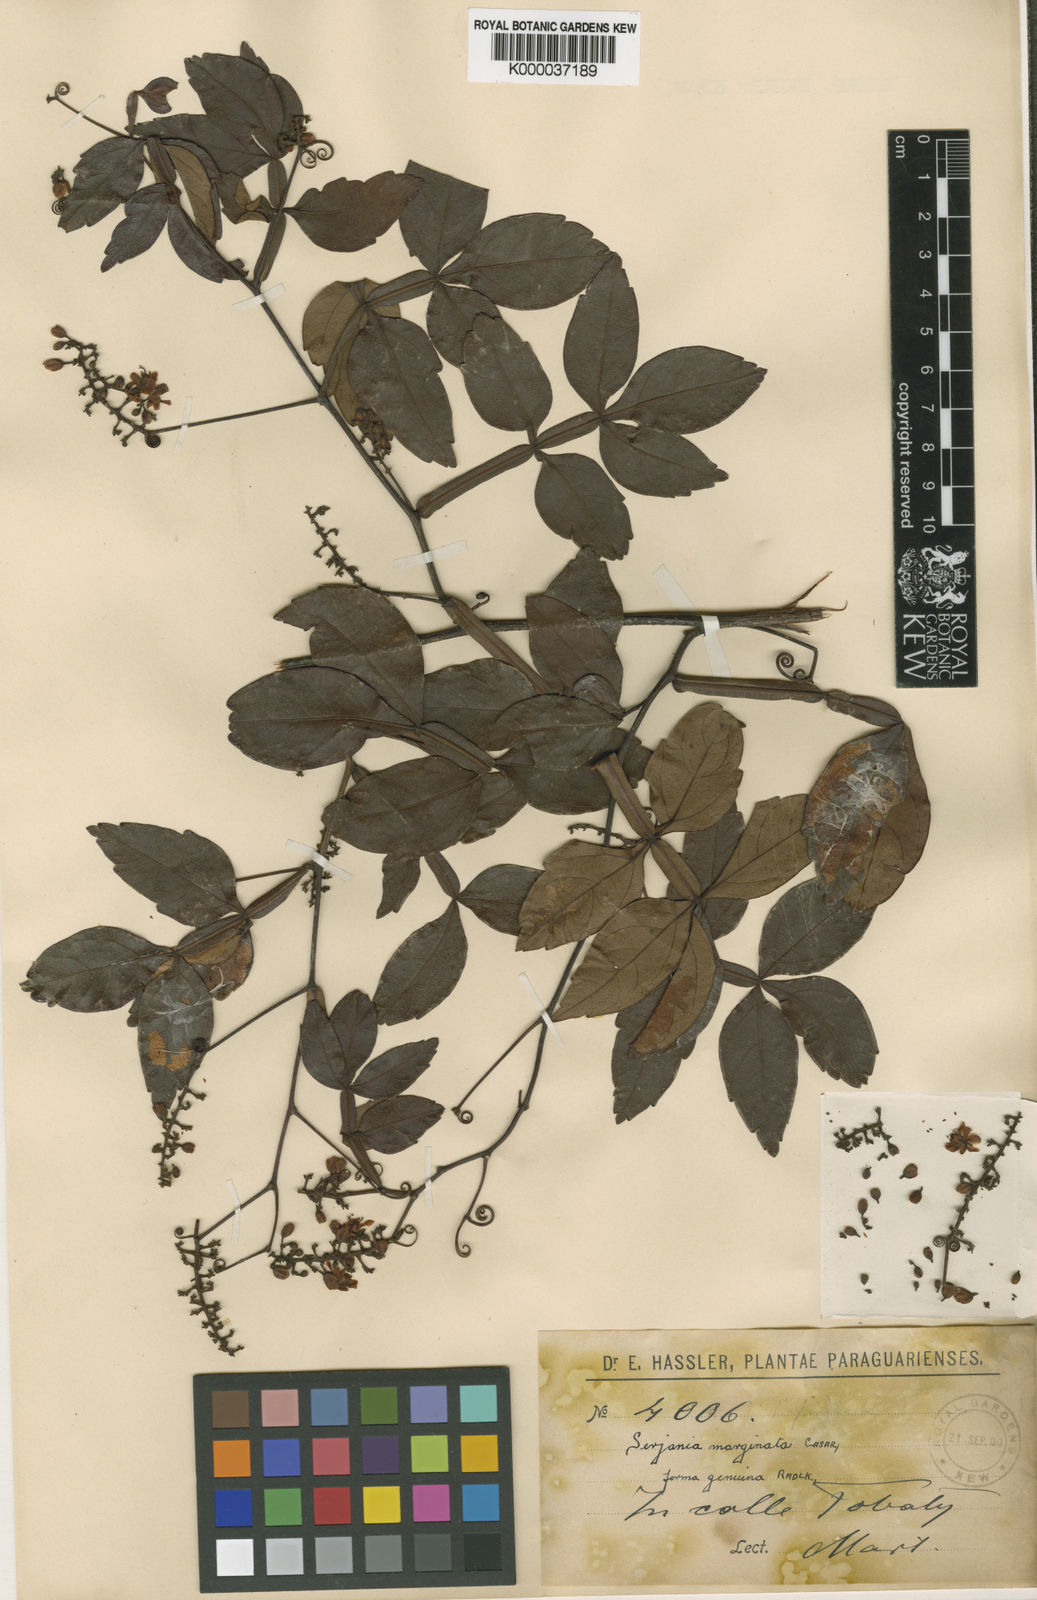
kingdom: Plantae
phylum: Tracheophyta
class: Magnoliopsida
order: Sapindales
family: Sapindaceae
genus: Serjania
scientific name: Serjania marginata
